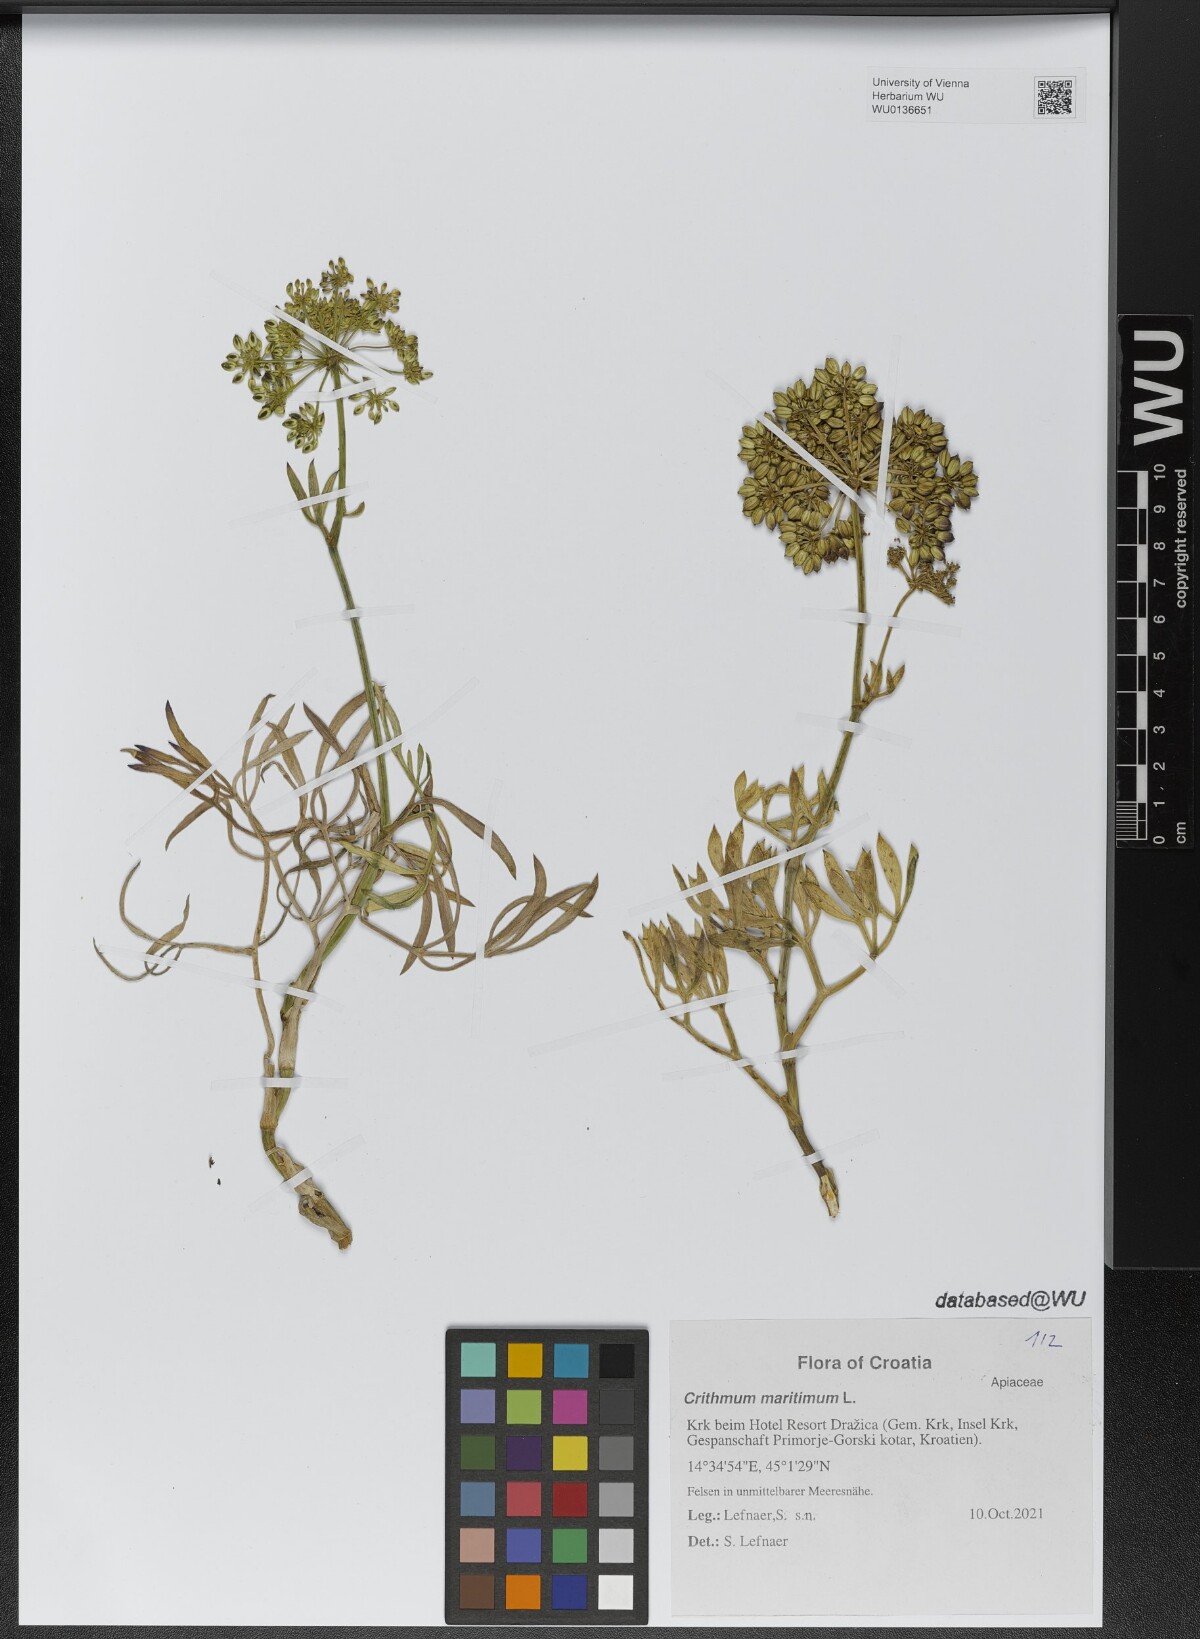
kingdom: Plantae
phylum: Tracheophyta
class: Magnoliopsida
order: Apiales
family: Apiaceae
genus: Crithmum
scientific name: Crithmum maritimum
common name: Rock samphire
